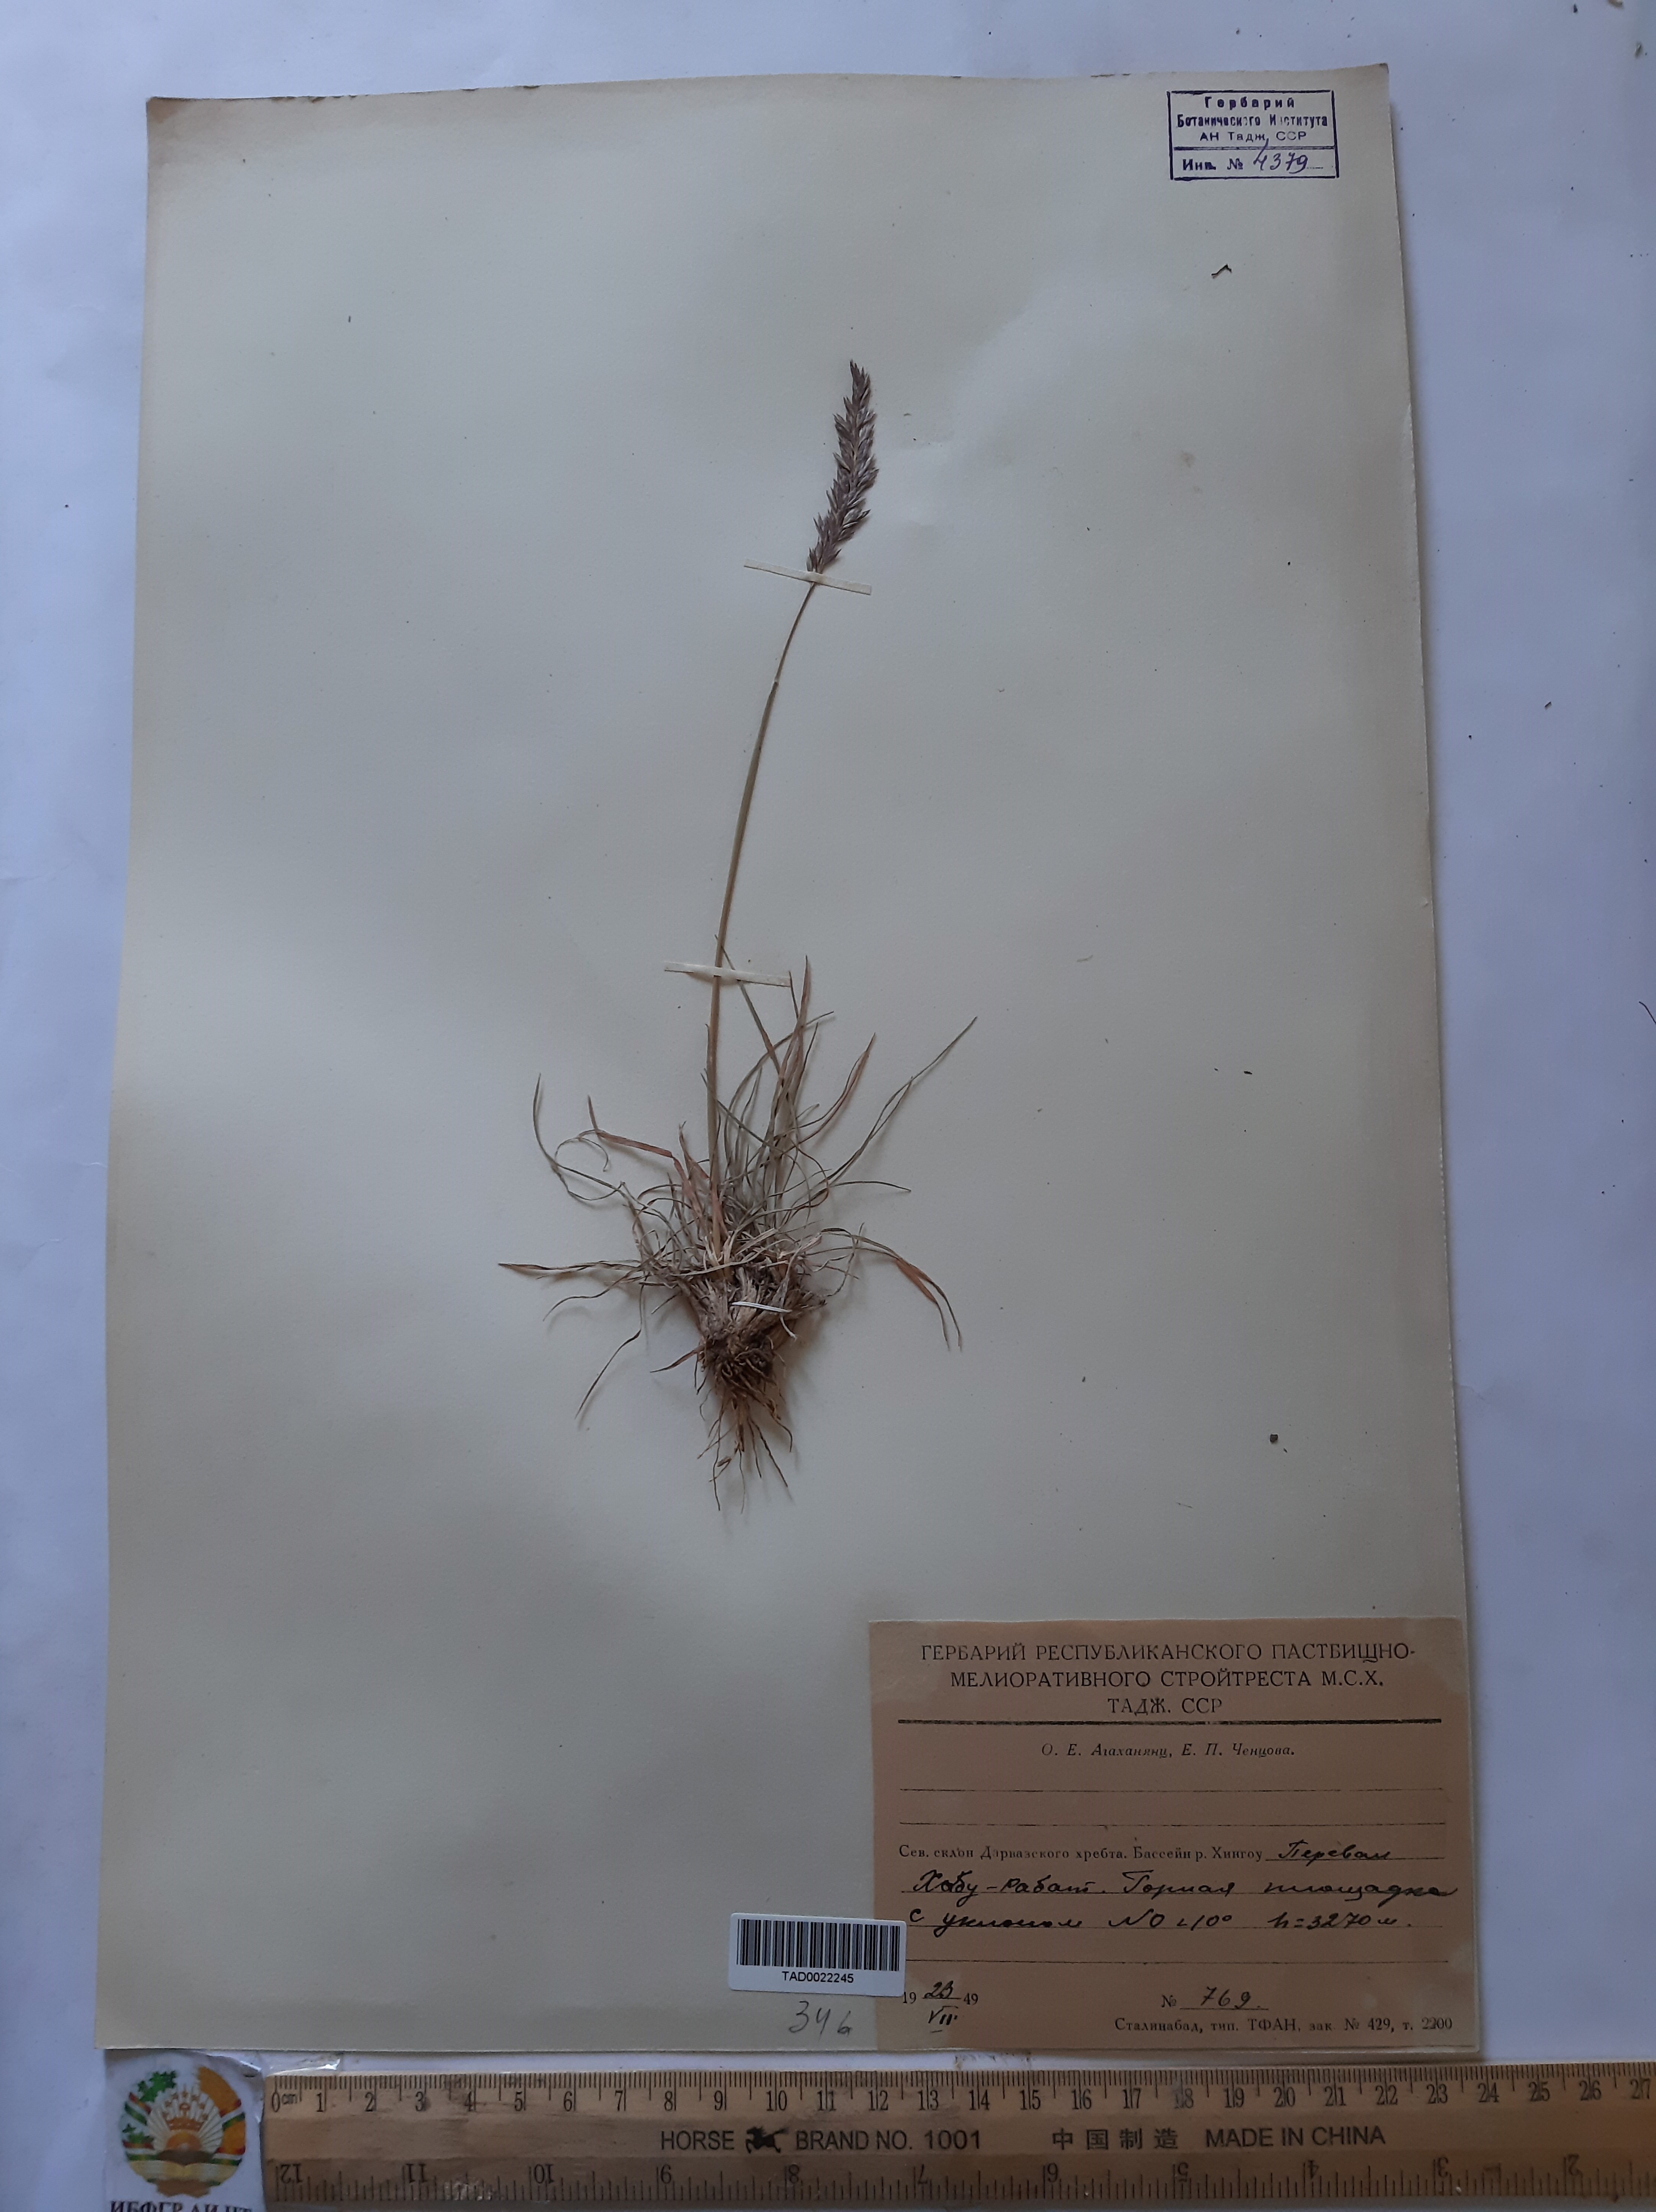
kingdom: Plantae
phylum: Tracheophyta
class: Liliopsida
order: Poales
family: Poaceae
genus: Koeleria
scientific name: Koeleria macrantha
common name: Crested hair-grass
